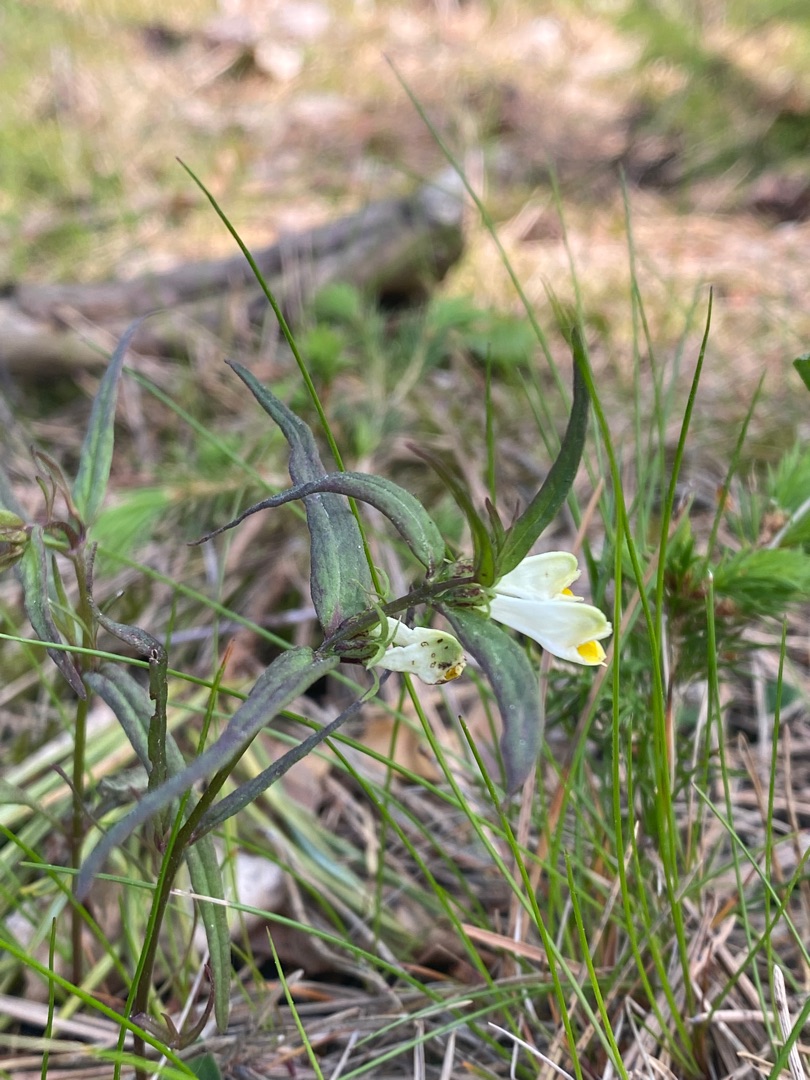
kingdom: Plantae
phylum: Tracheophyta
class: Magnoliopsida
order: Lamiales
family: Orobanchaceae
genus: Melampyrum
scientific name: Melampyrum pratense
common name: Almindelig kohvede
